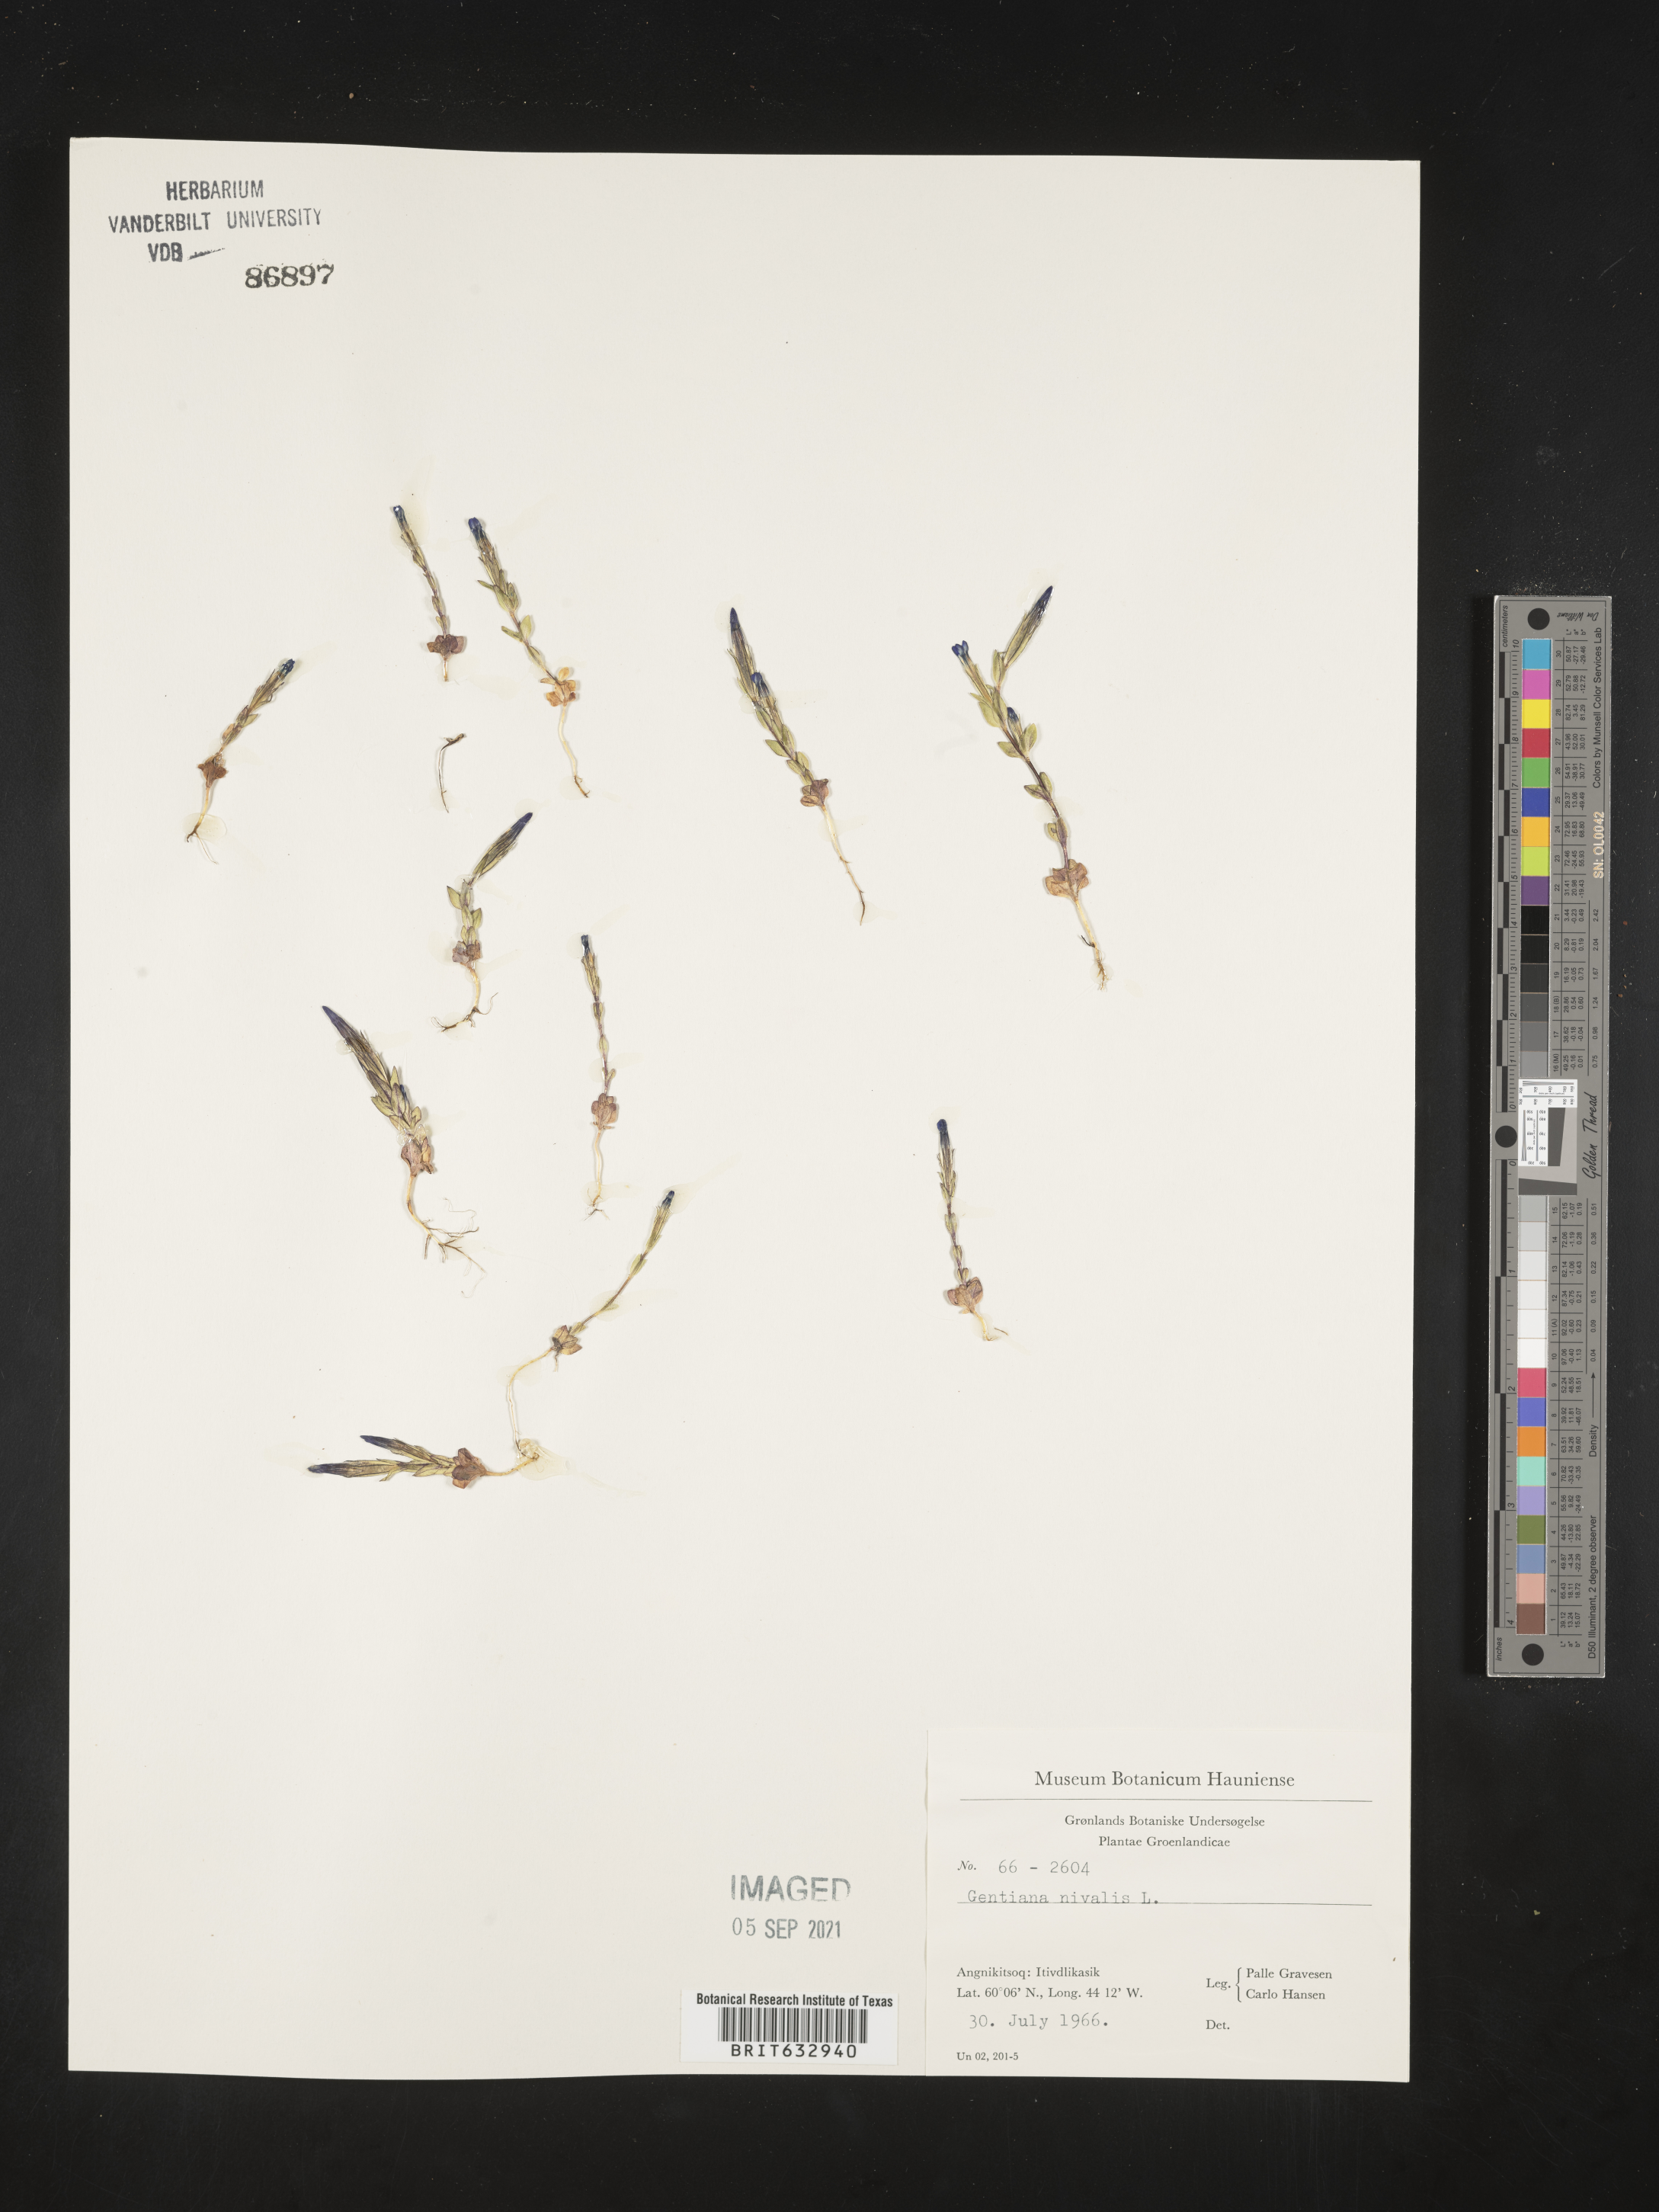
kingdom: Plantae
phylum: Tracheophyta
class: Magnoliopsida
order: Gentianales
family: Gentianaceae
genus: Gentiana
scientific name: Gentiana
